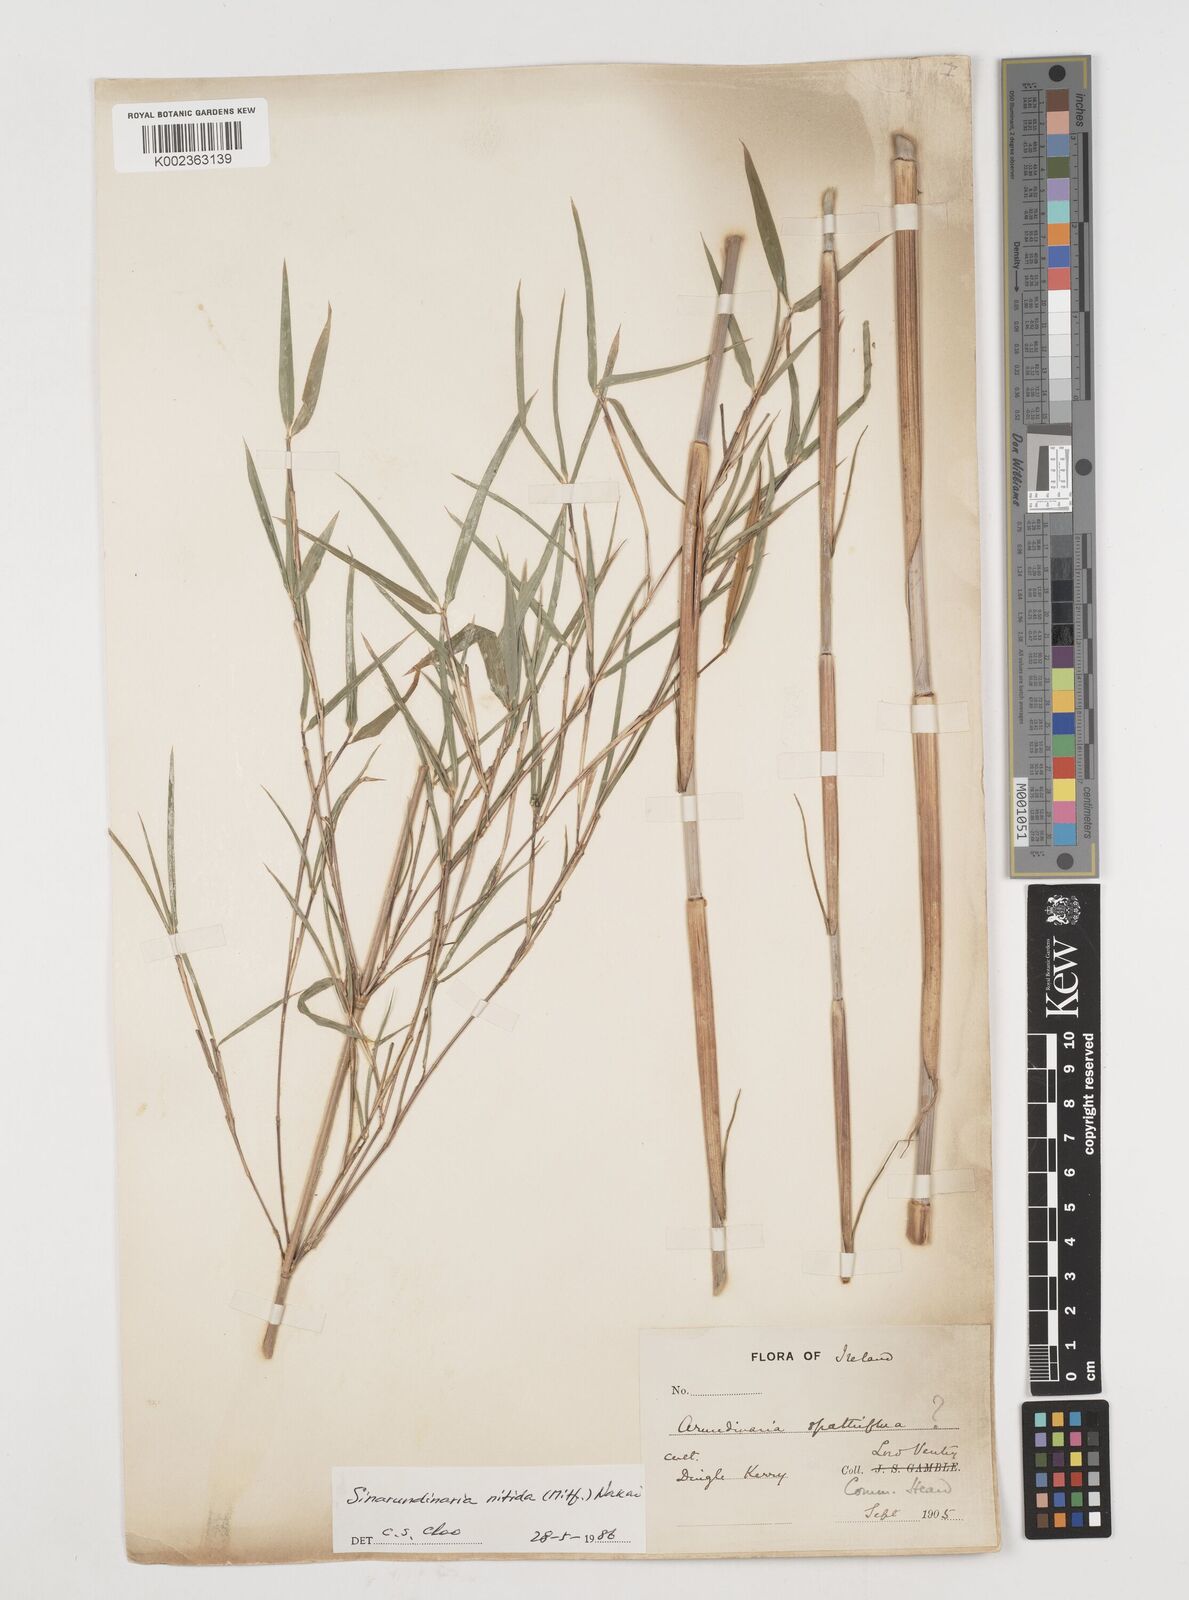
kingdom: Plantae
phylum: Tracheophyta
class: Liliopsida
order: Poales
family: Poaceae
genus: Fargesia
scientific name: Fargesia nitida ex
